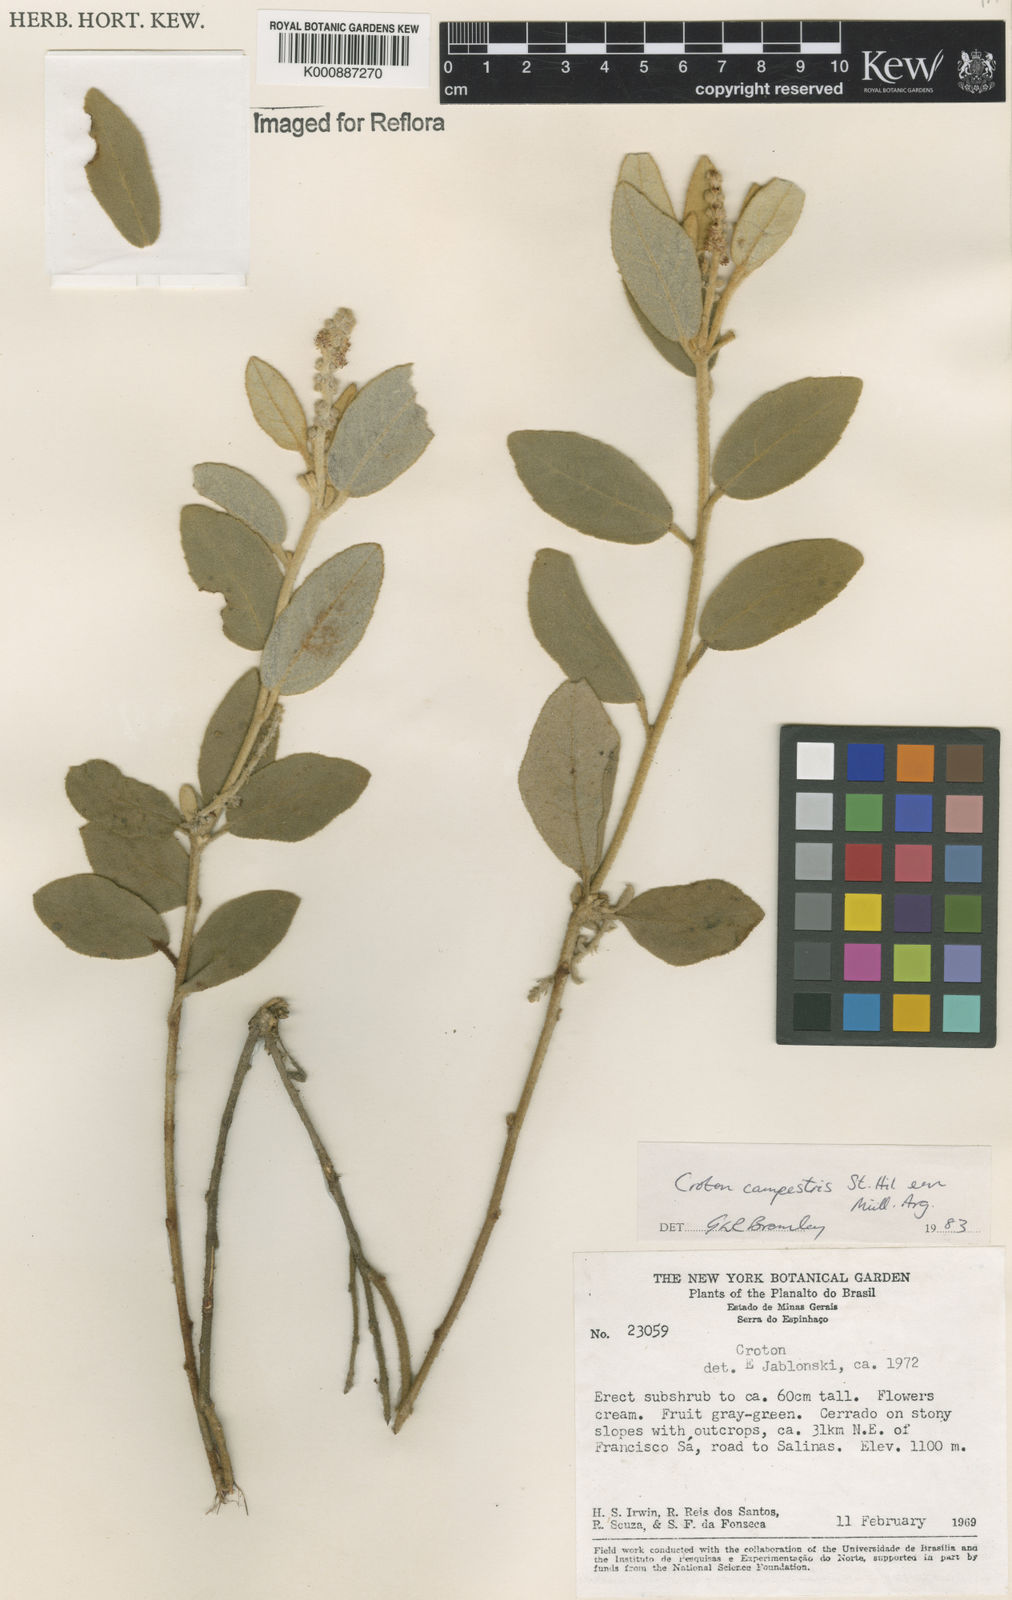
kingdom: Plantae
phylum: Tracheophyta
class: Magnoliopsida
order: Malpighiales
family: Euphorbiaceae
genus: Croton
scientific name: Croton campestris
